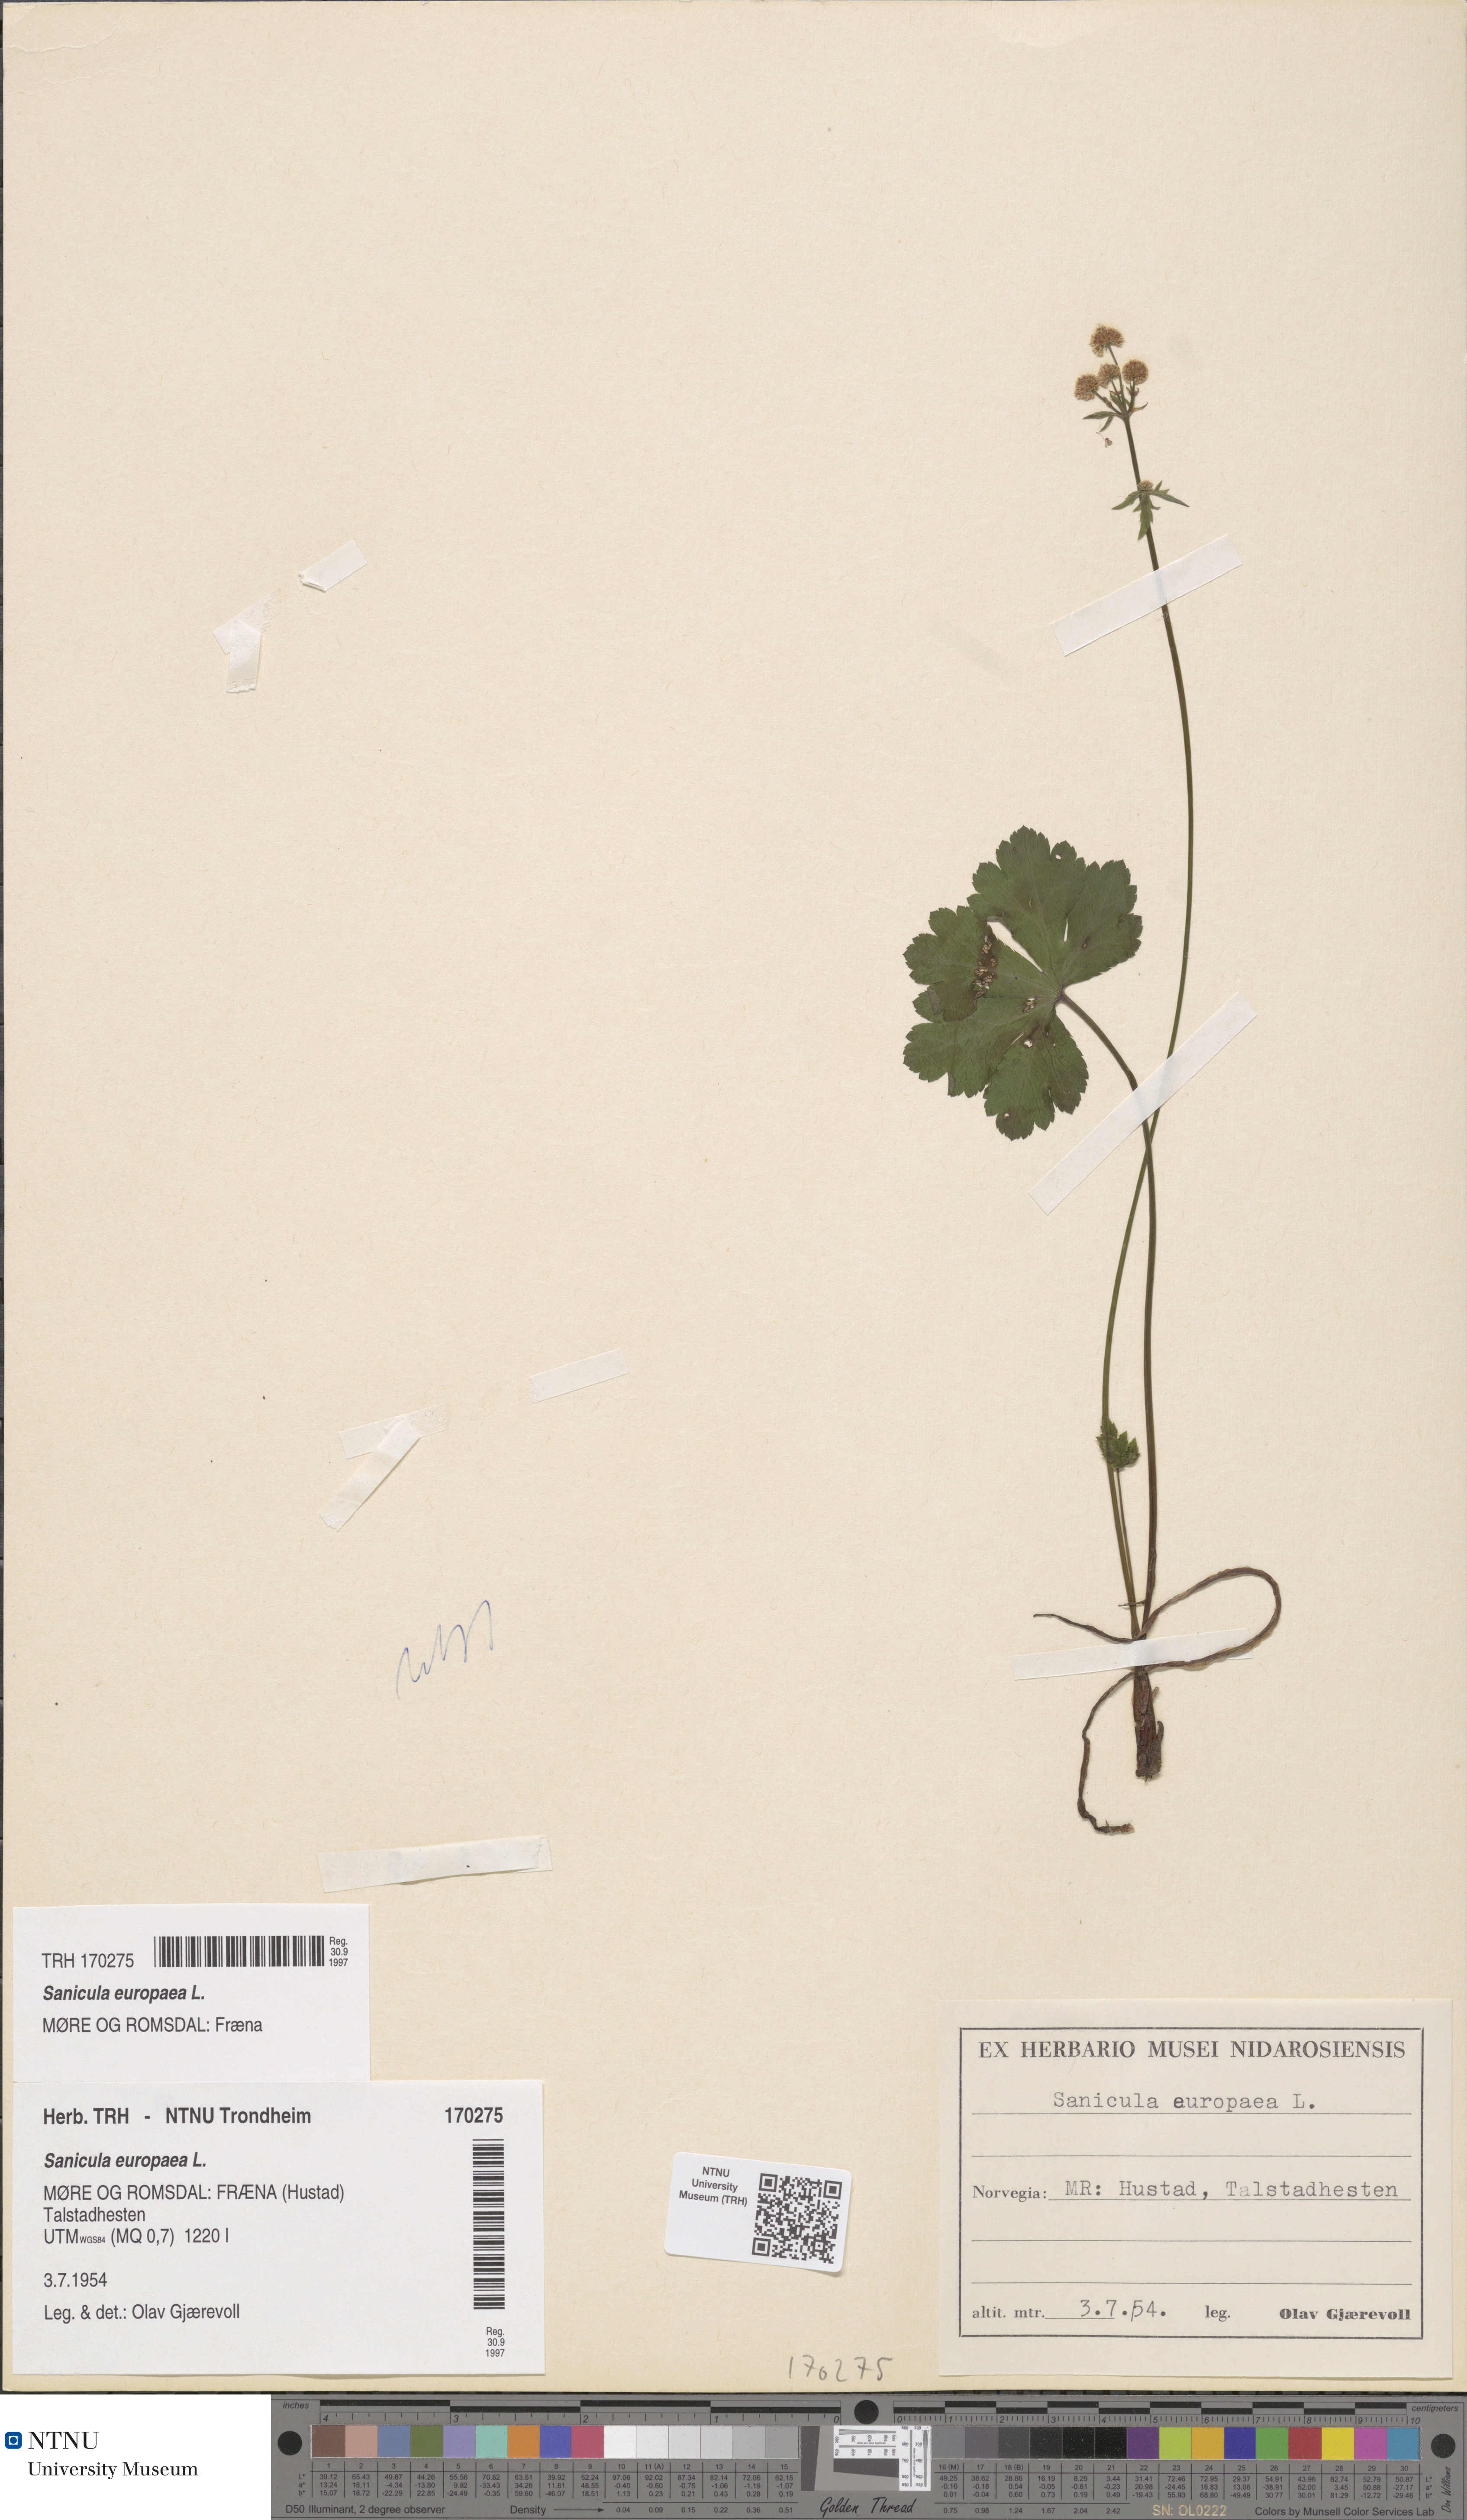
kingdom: Plantae
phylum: Tracheophyta
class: Magnoliopsida
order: Apiales
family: Apiaceae
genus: Sanicula
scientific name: Sanicula europaea
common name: Sanicle
